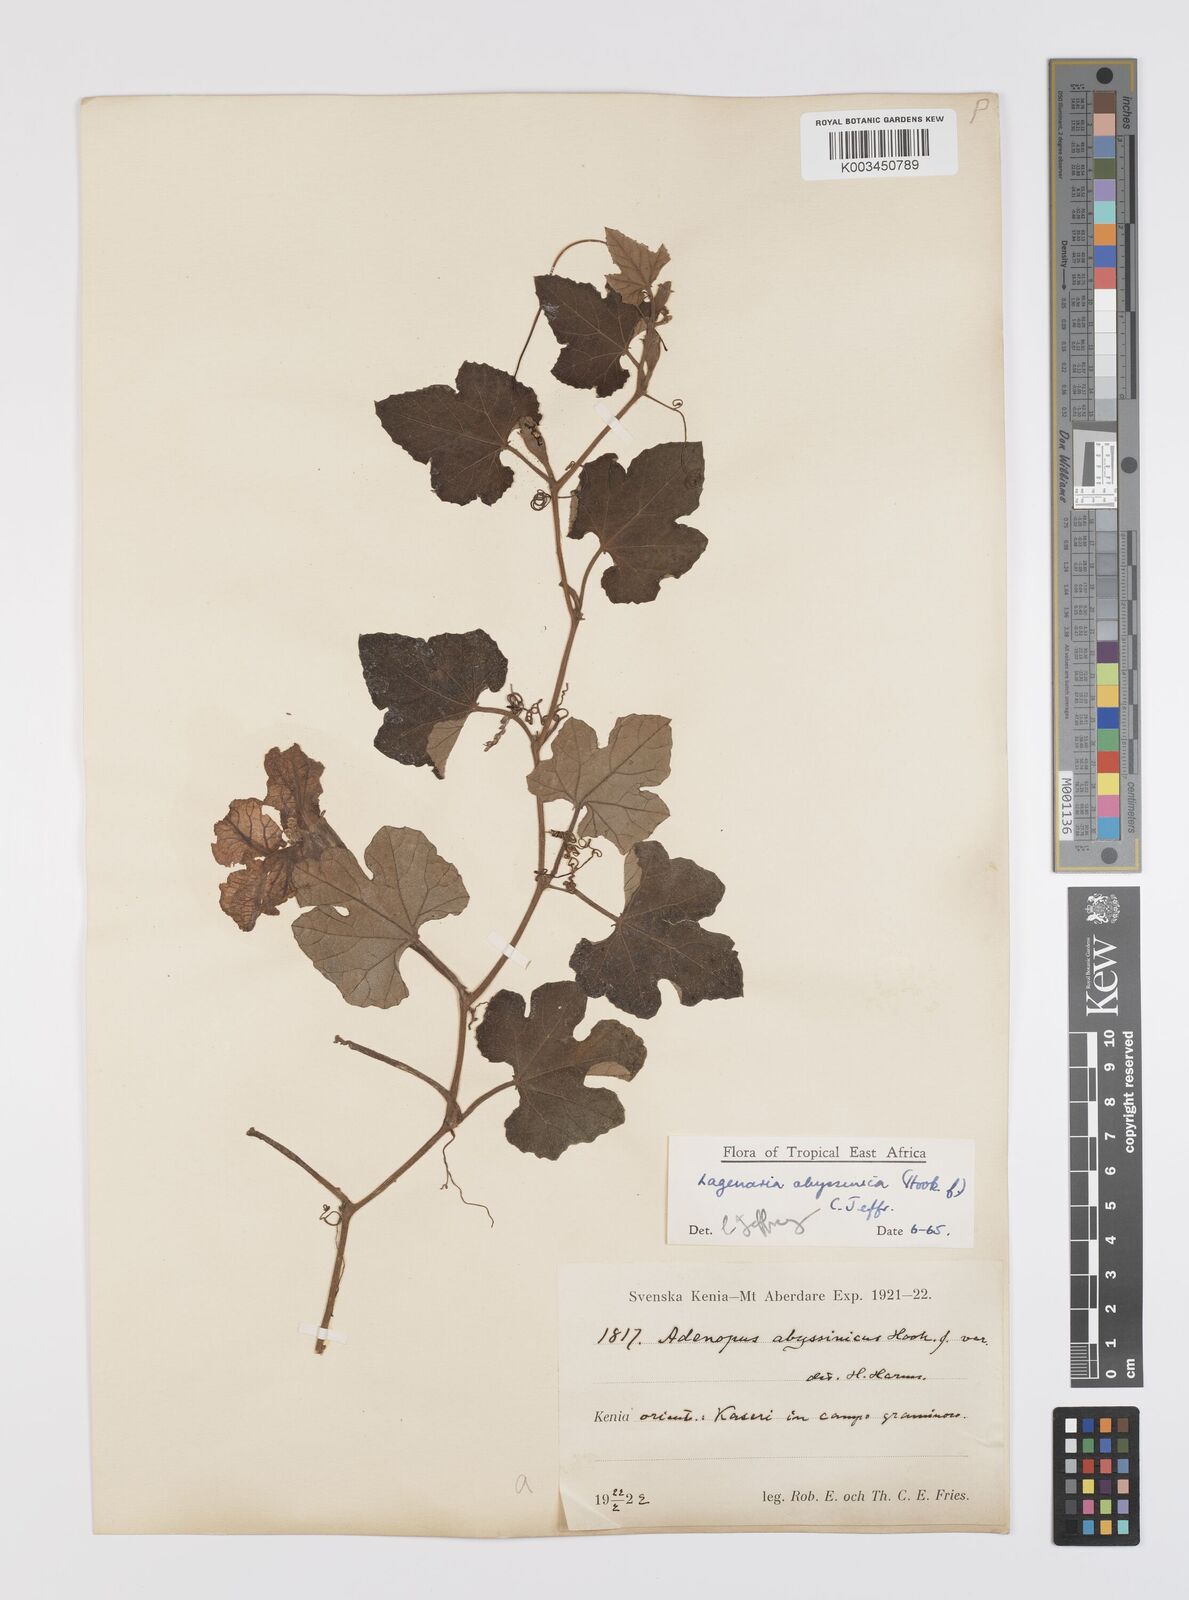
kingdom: Plantae
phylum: Tracheophyta
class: Magnoliopsida
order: Cucurbitales
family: Cucurbitaceae
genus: Lagenaria
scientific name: Lagenaria abyssinica
